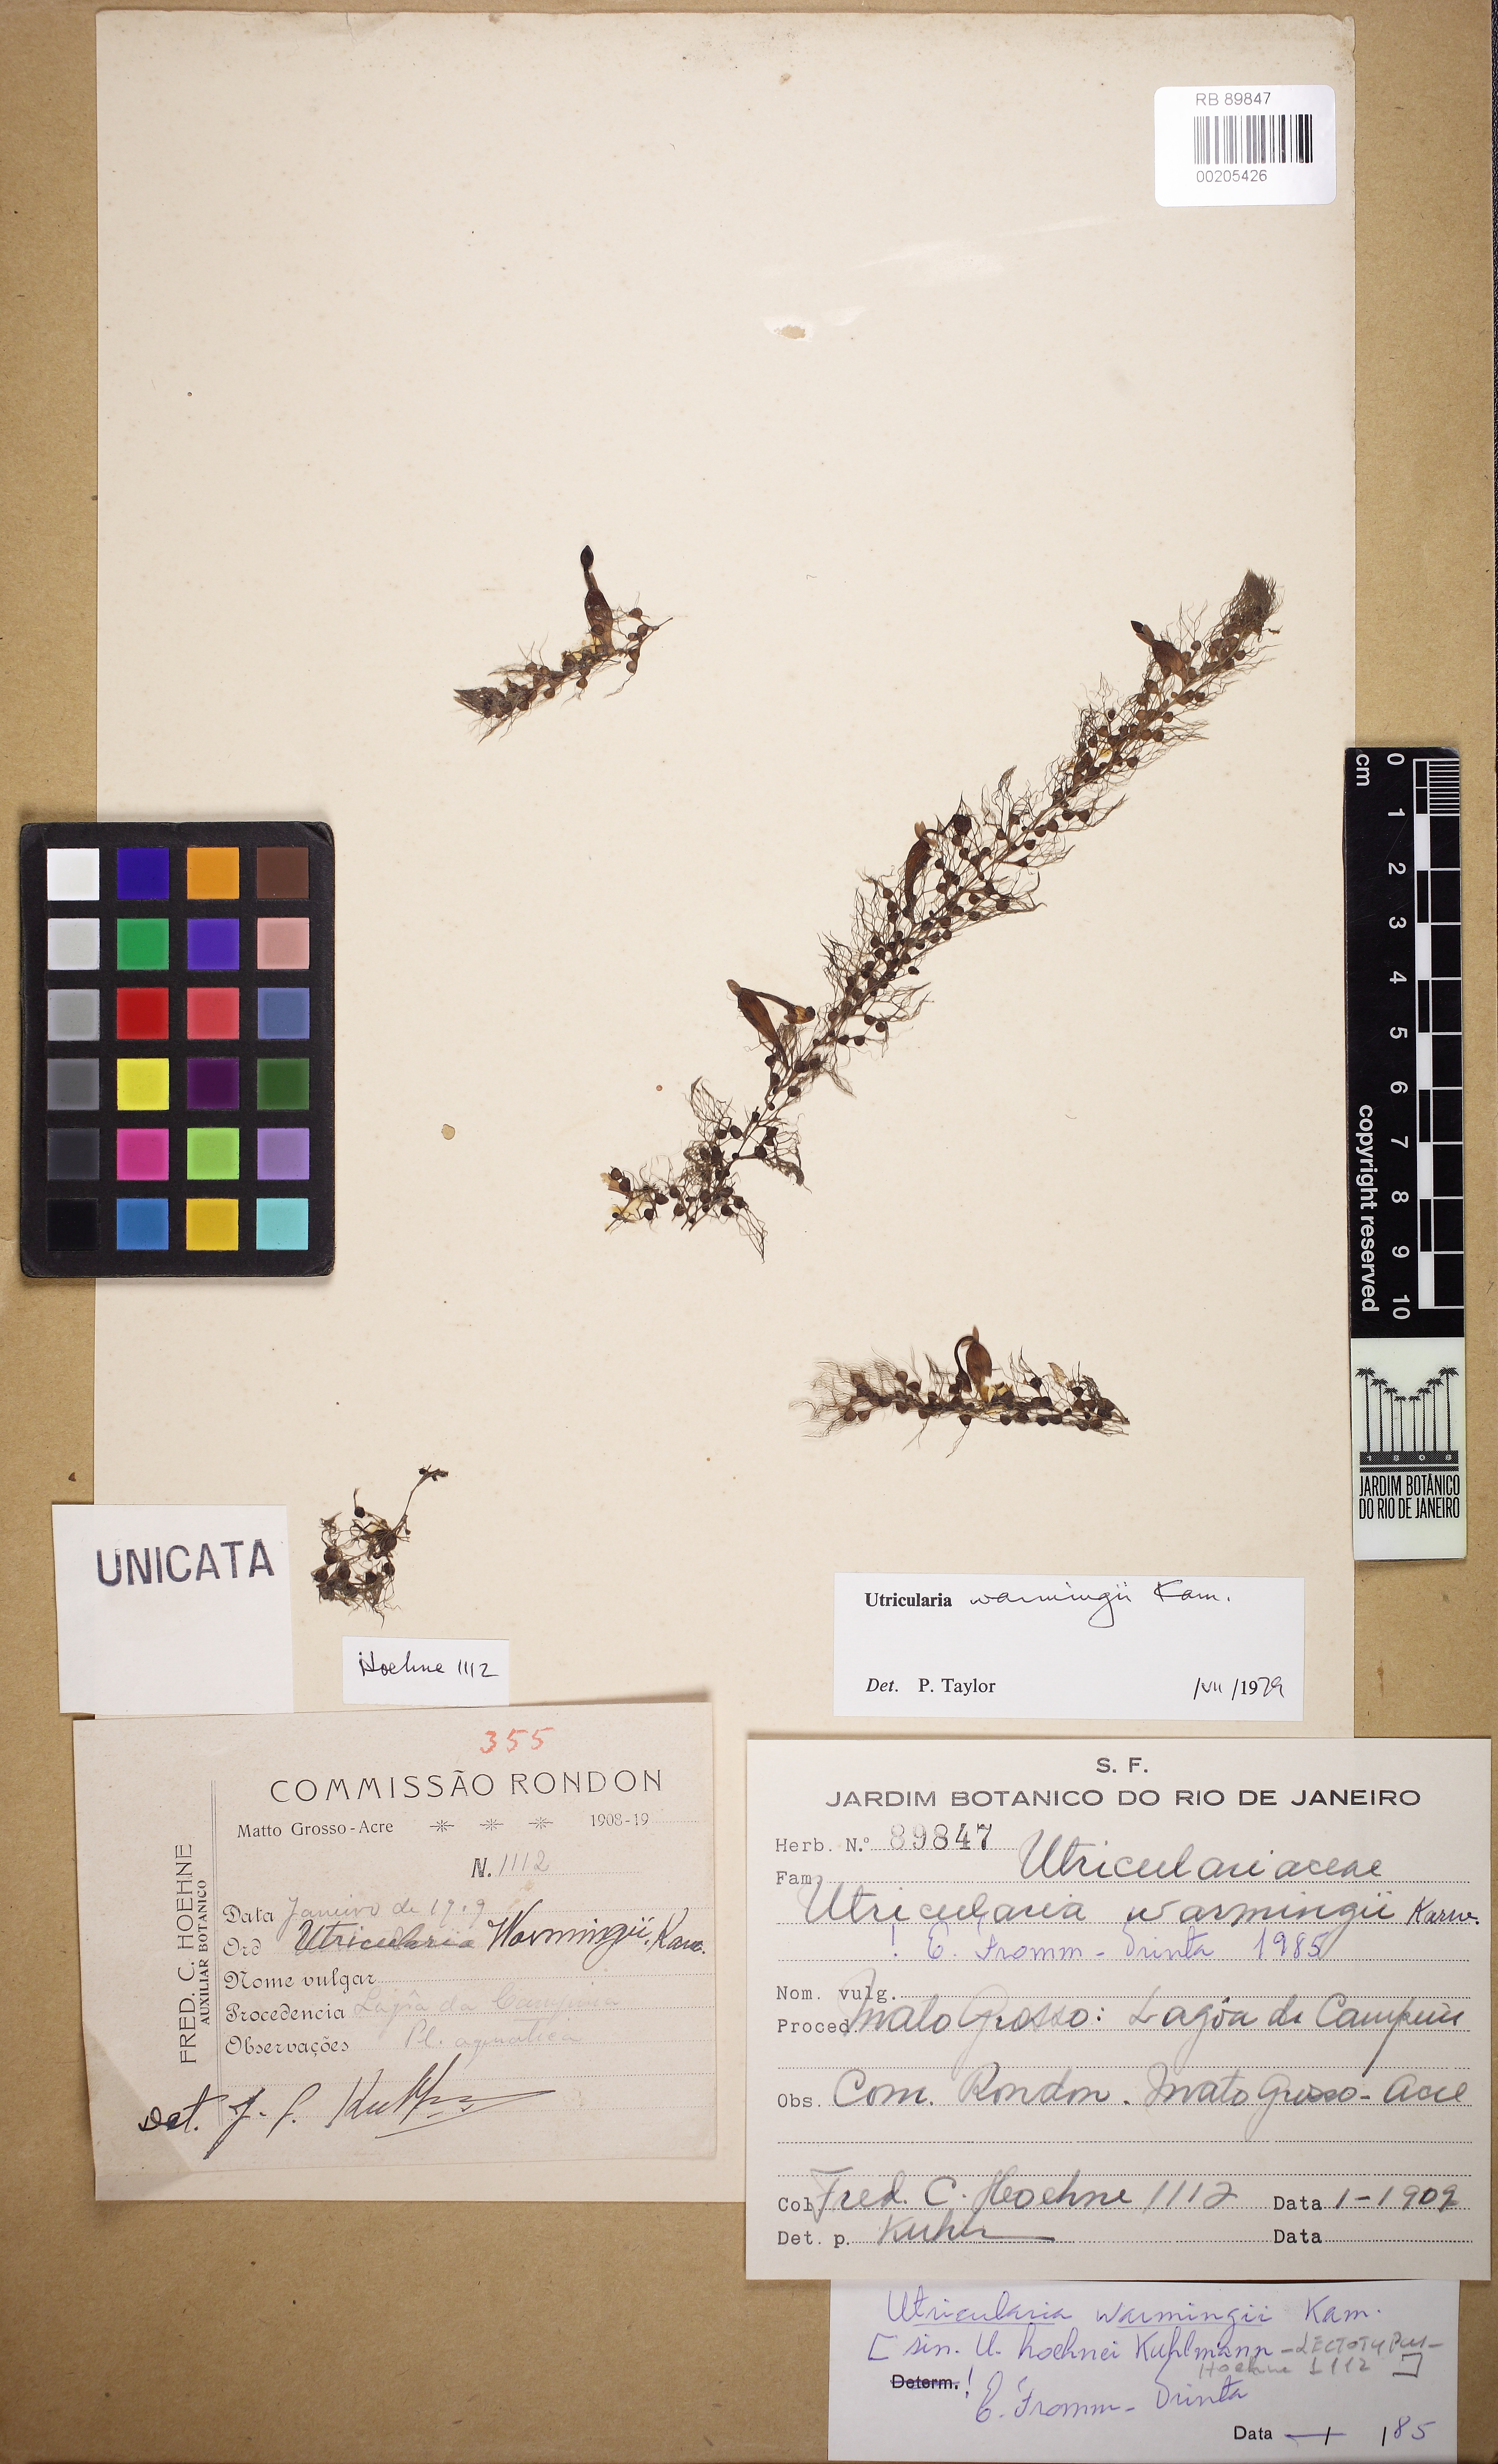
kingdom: Plantae
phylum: Tracheophyta
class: Magnoliopsida
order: Lamiales
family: Lentibulariaceae
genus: Utricularia
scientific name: Utricularia warmingii
